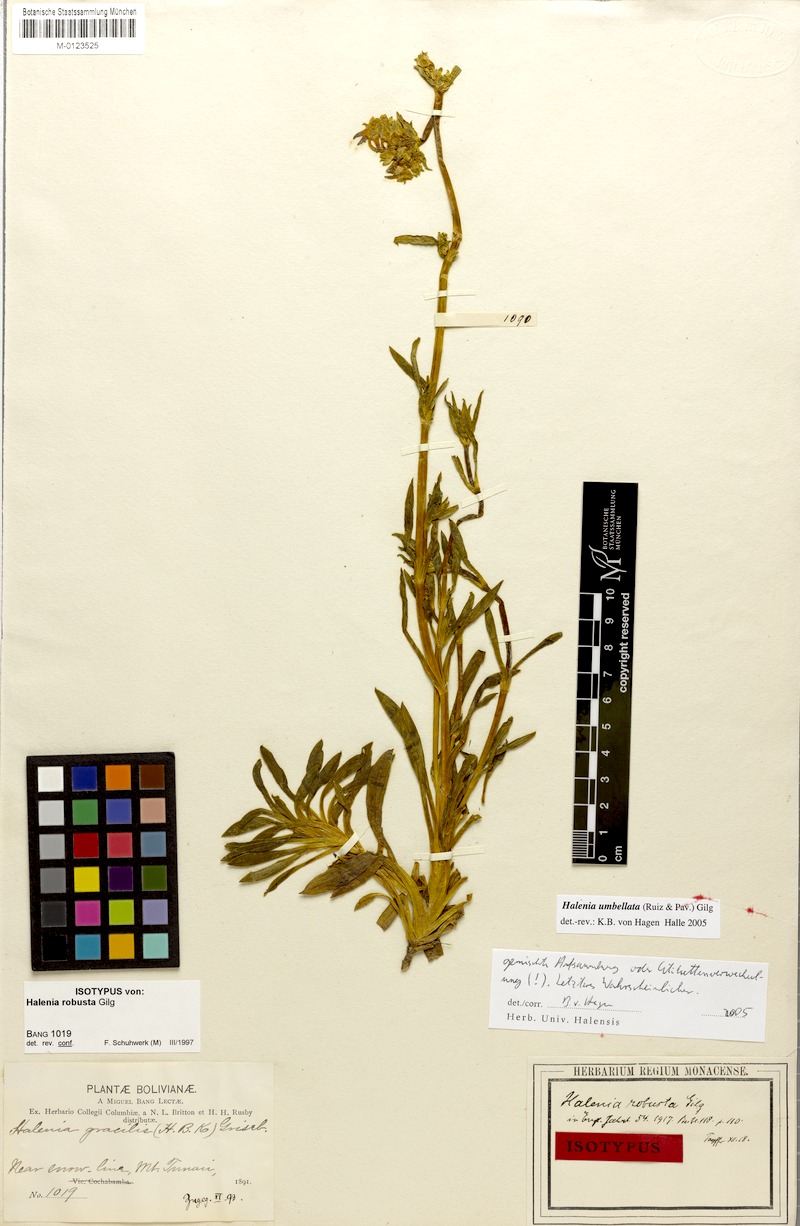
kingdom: Plantae
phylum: Tracheophyta
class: Magnoliopsida
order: Gentianales
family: Gentianaceae
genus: Halenia
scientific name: Halenia umbellata
